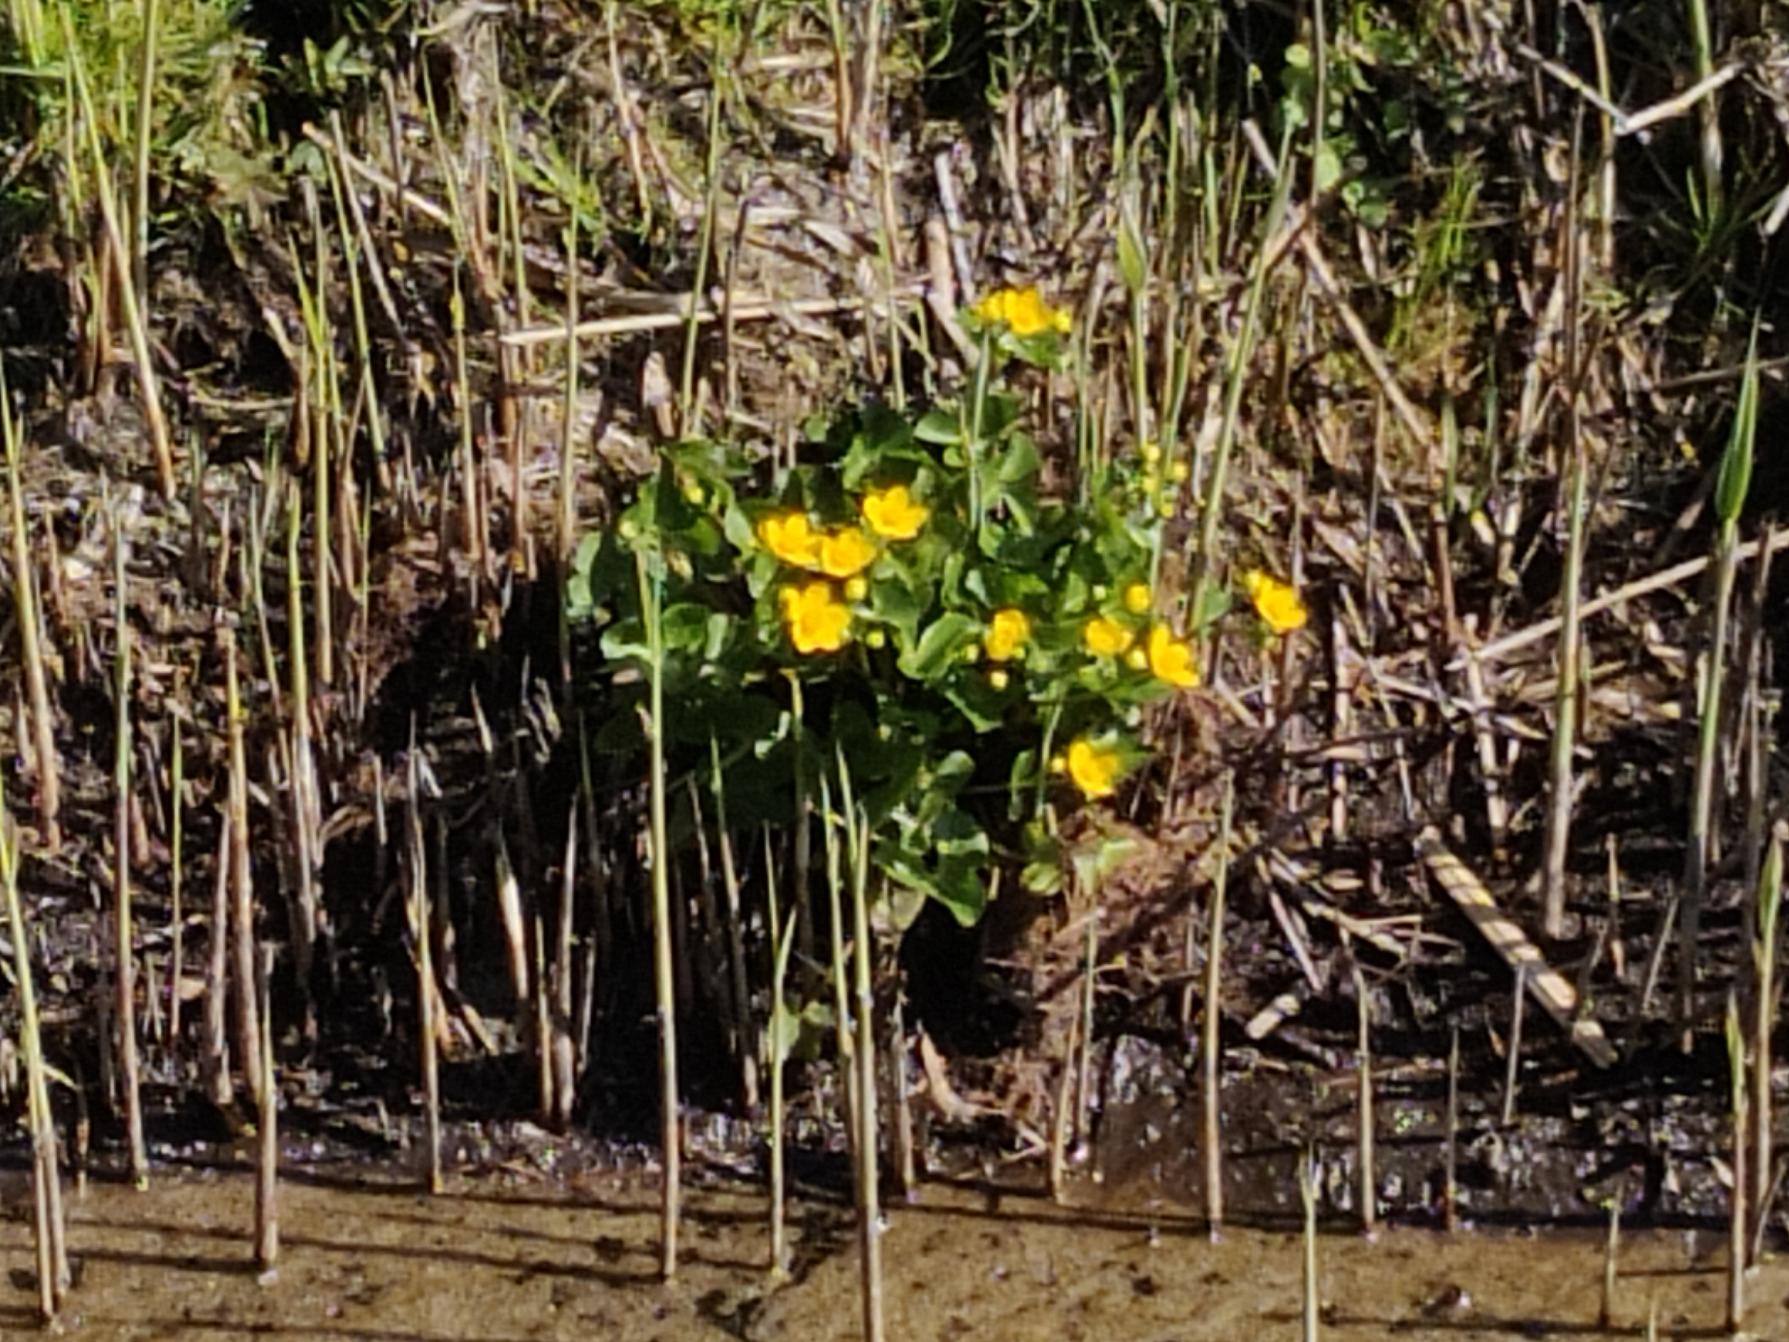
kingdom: Plantae
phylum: Tracheophyta
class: Magnoliopsida
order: Ranunculales
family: Ranunculaceae
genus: Caltha
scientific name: Caltha palustris
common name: Eng-kabbeleje
